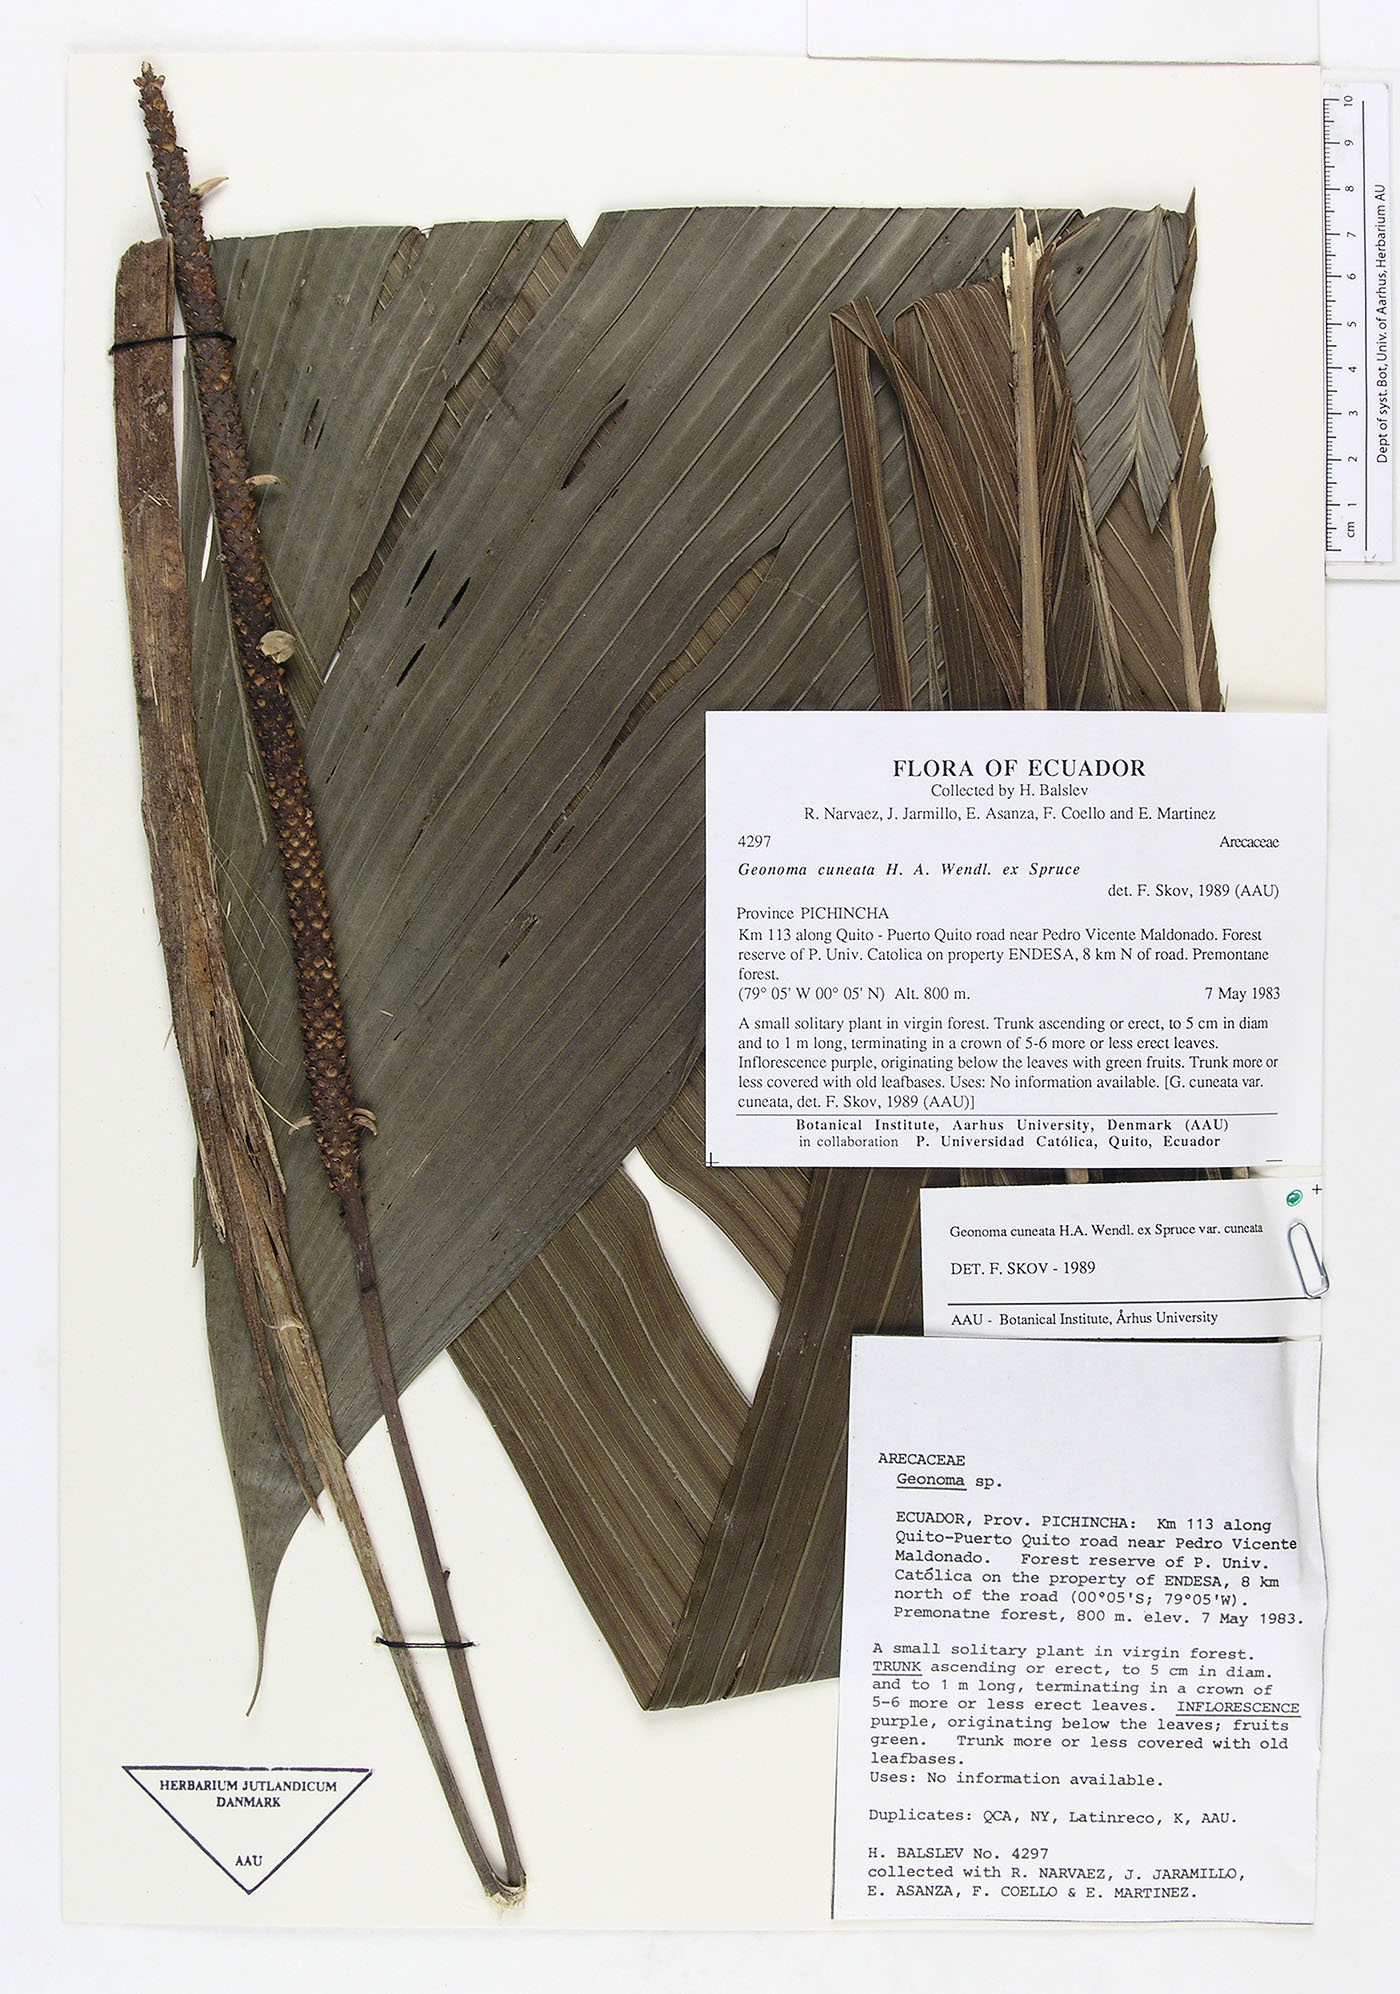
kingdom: Plantae
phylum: Tracheophyta
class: Liliopsida
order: Arecales
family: Arecaceae
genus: Geonoma
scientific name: Geonoma cuneata
